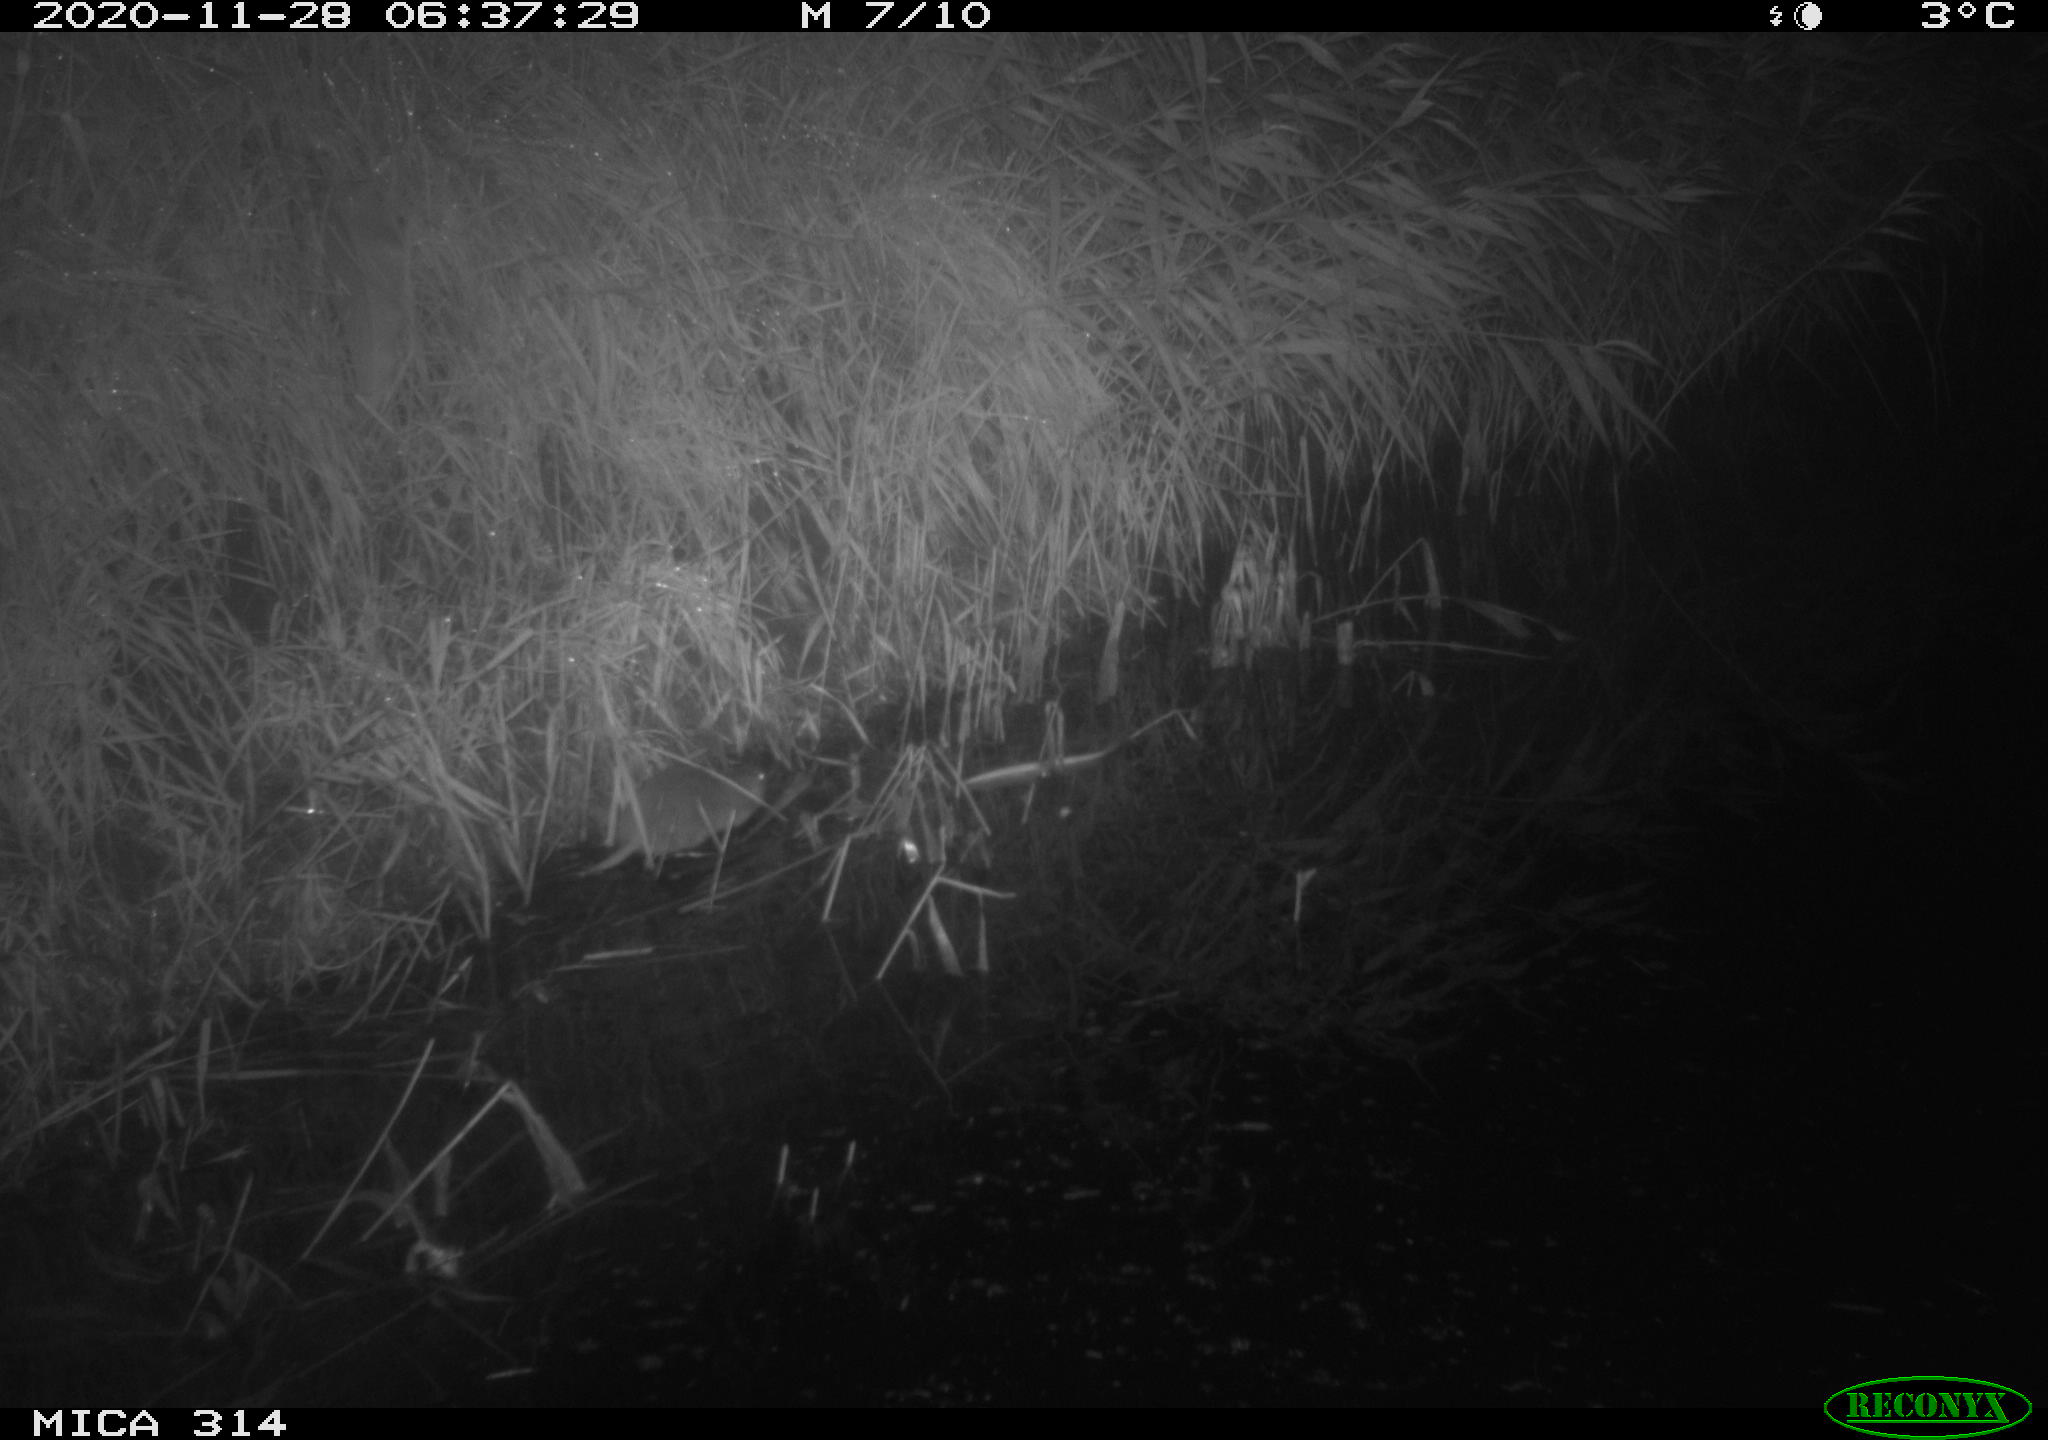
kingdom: Animalia
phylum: Chordata
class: Mammalia
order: Rodentia
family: Muridae
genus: Rattus
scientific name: Rattus norvegicus
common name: Brown rat
